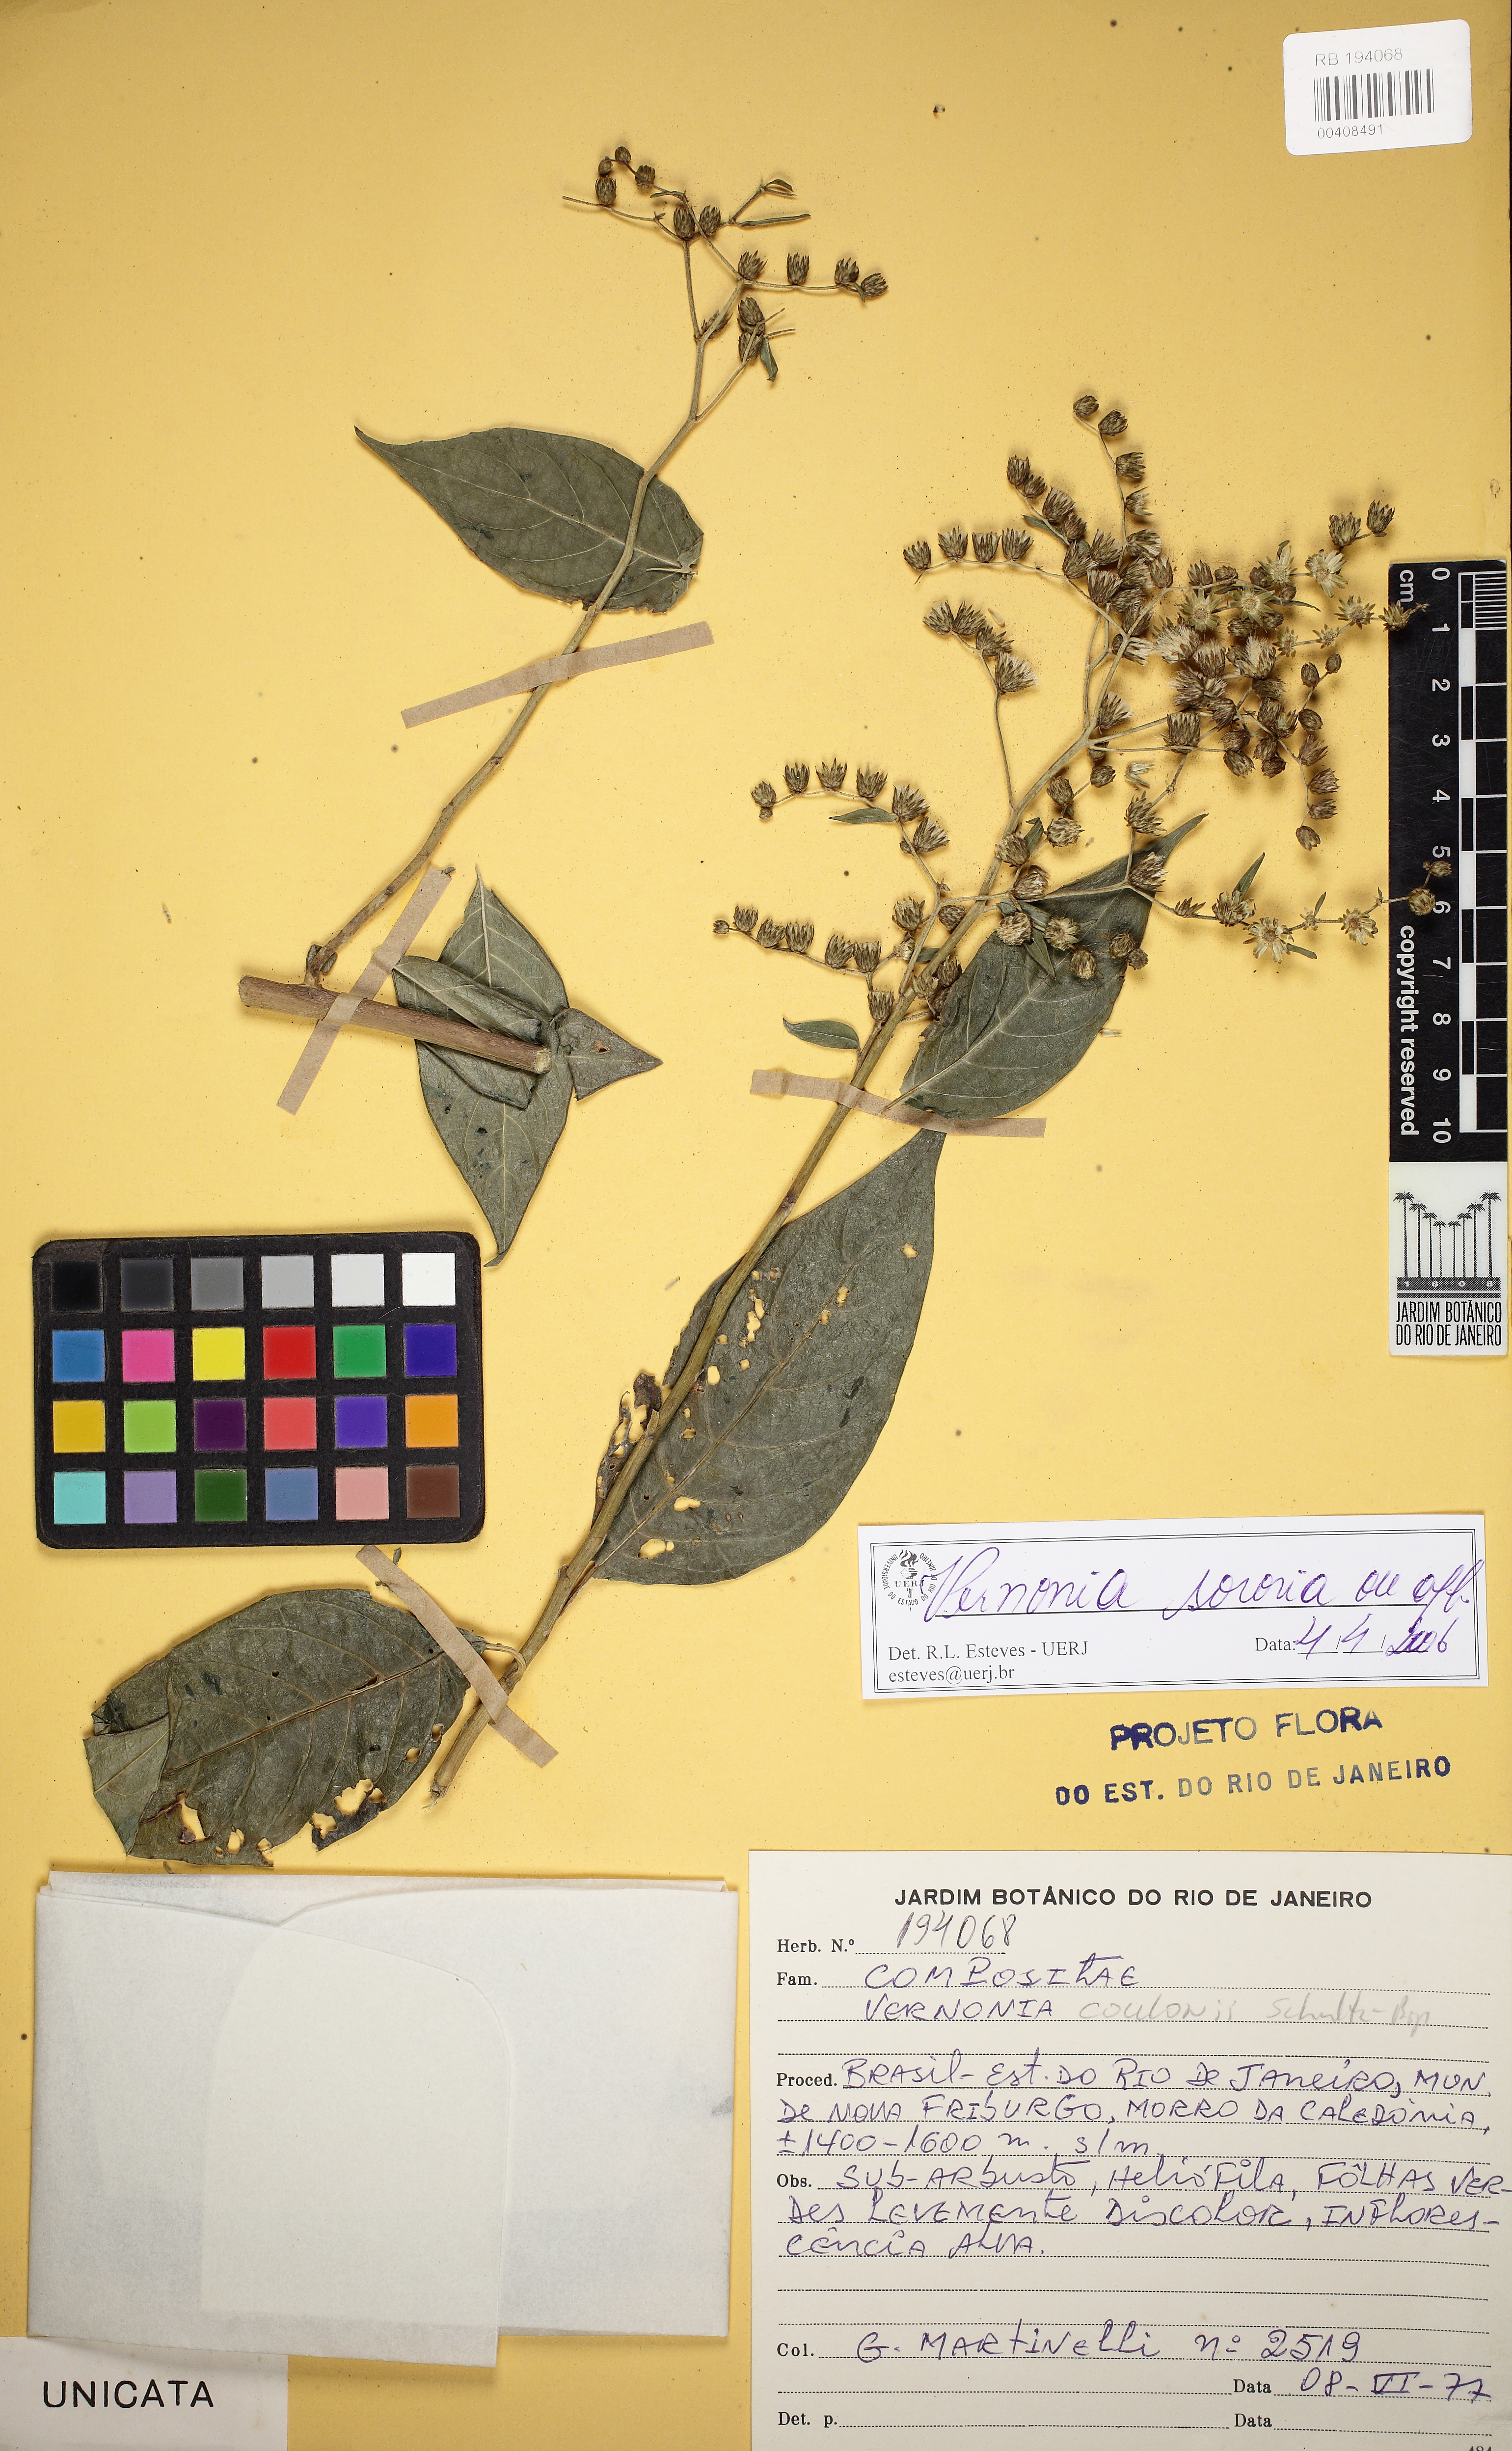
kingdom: Plantae
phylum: Tracheophyta
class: Magnoliopsida
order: Asterales
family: Asteraceae
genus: Lepidaploa
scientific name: Lepidaploa sororia
